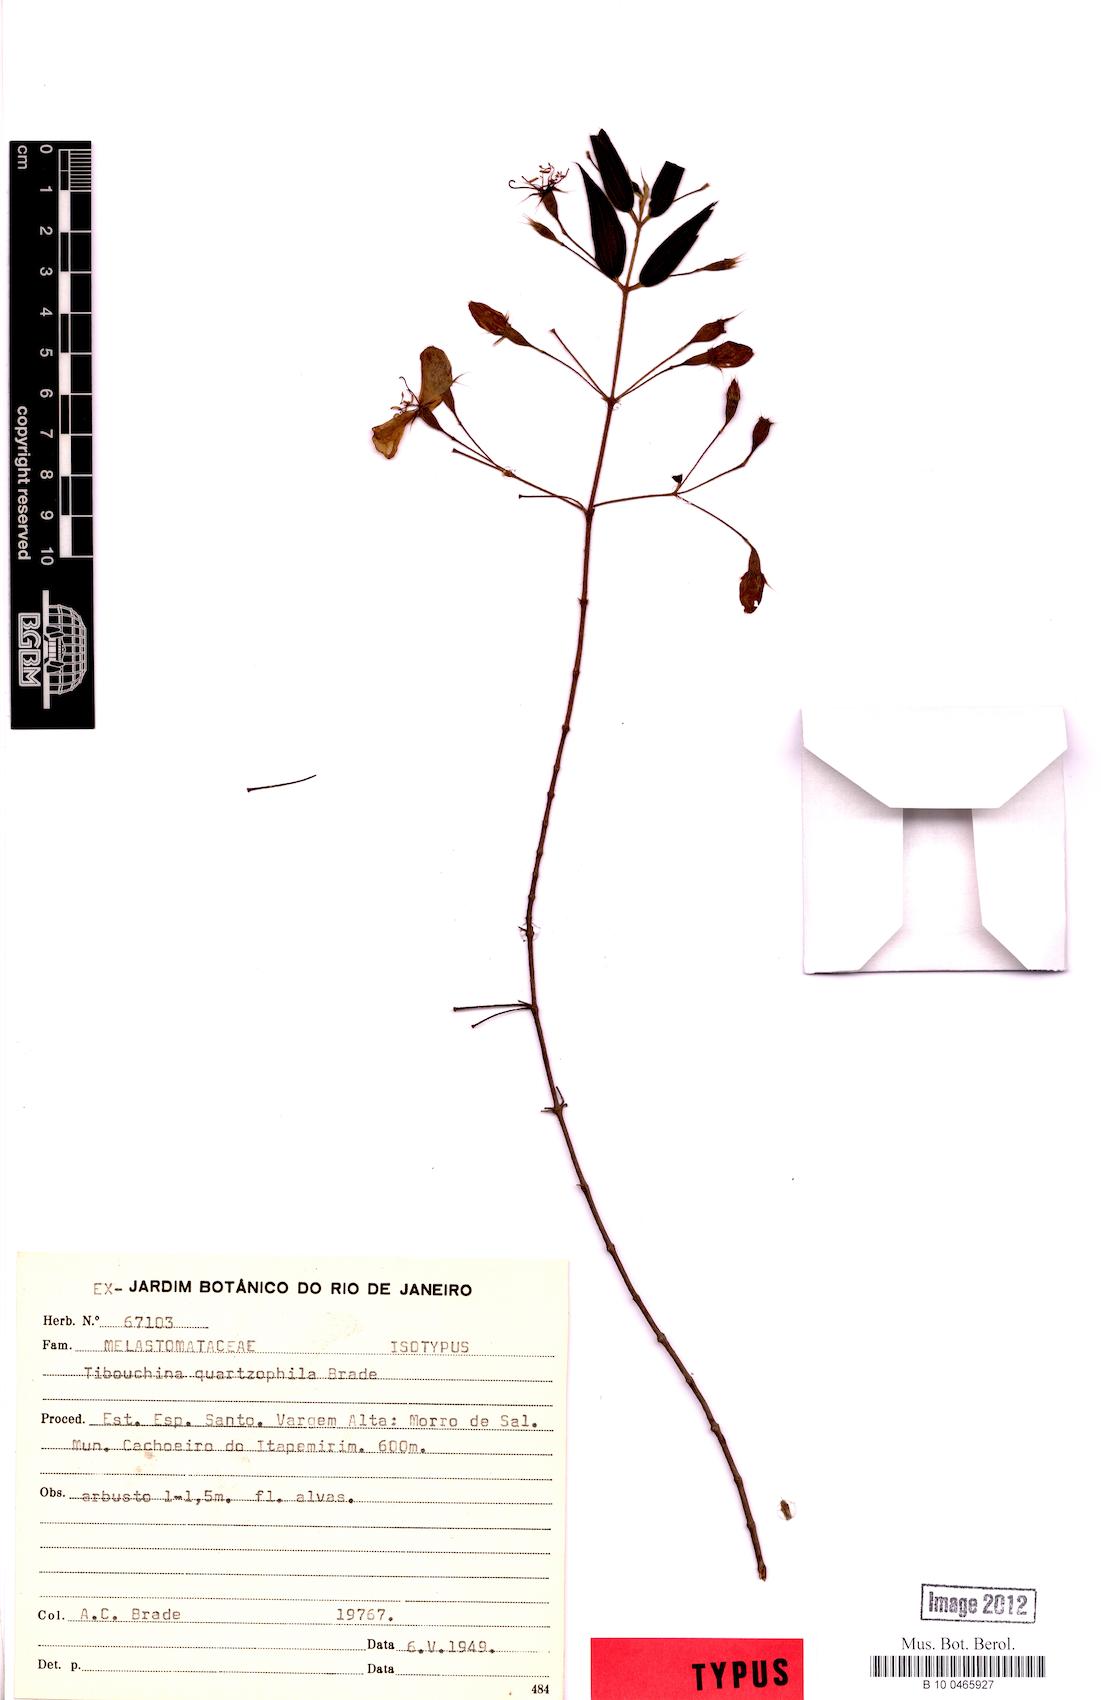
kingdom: Plantae
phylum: Tracheophyta
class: Magnoliopsida
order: Myrtales
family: Melastomataceae
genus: Pleroma
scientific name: Pleroma quartzophilum
